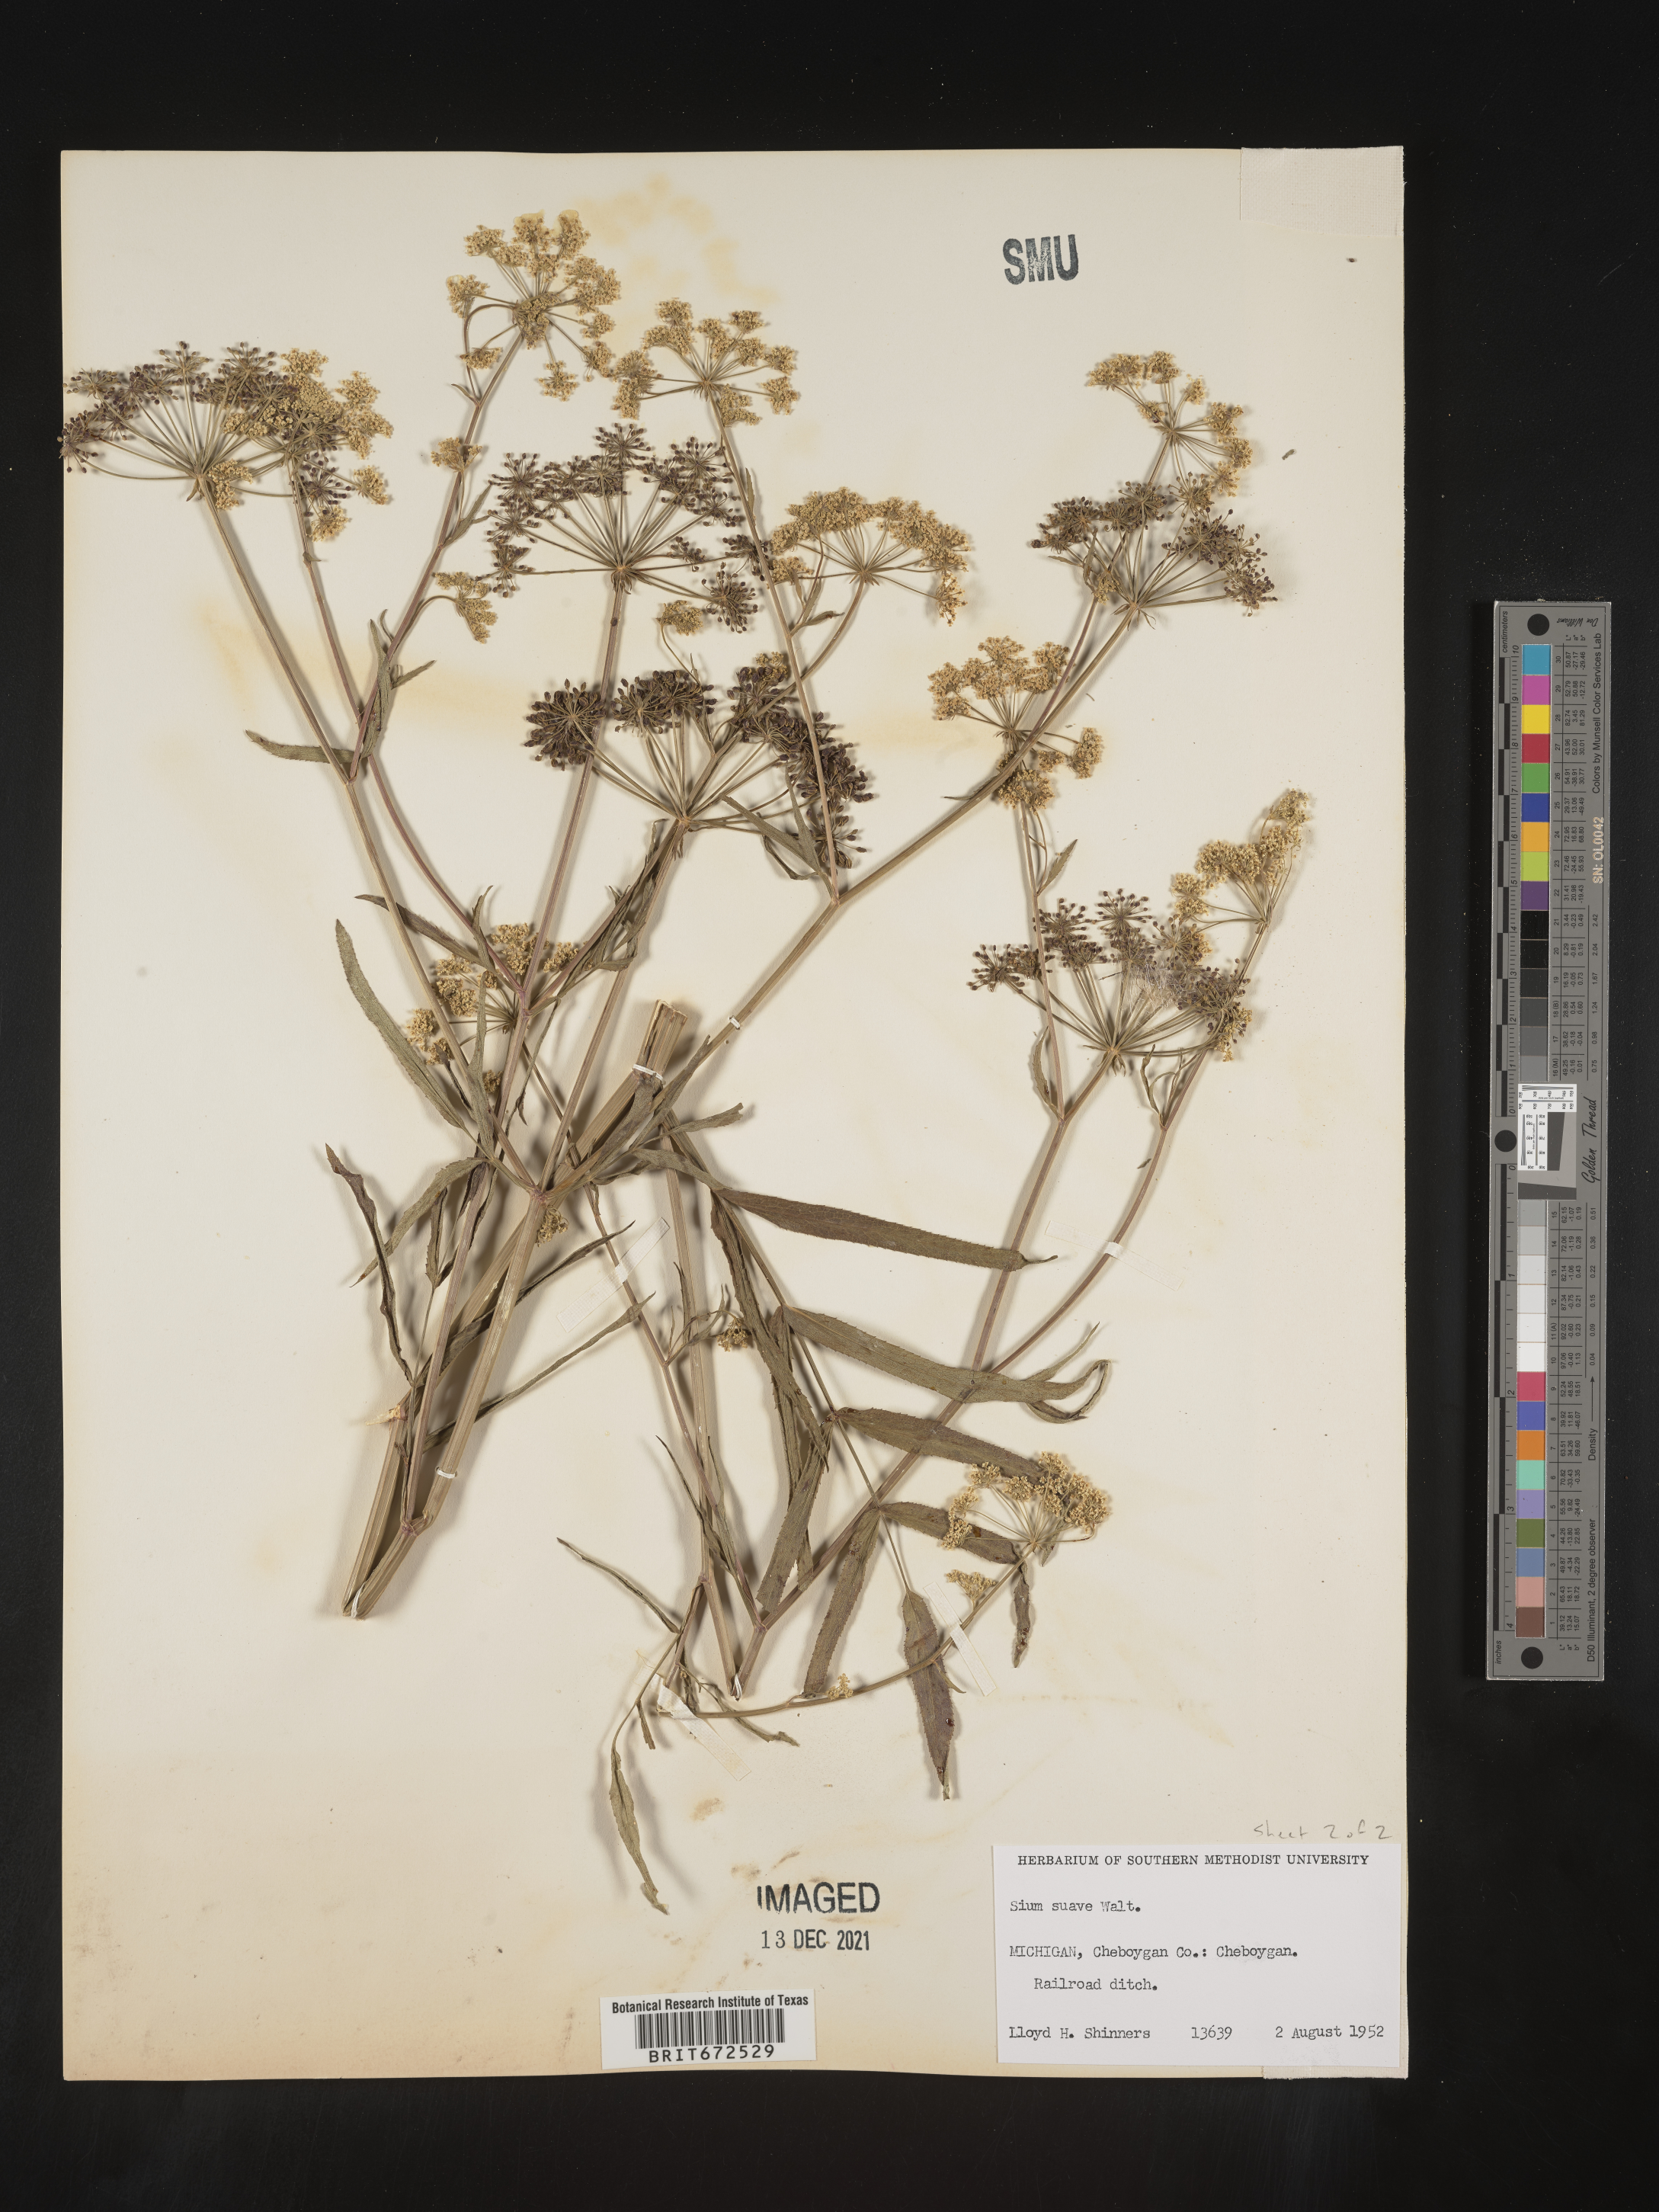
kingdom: Plantae
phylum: Tracheophyta
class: Magnoliopsida
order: Apiales
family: Apiaceae
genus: Sium
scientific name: Sium suave
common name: Hemlock water-parsnip
